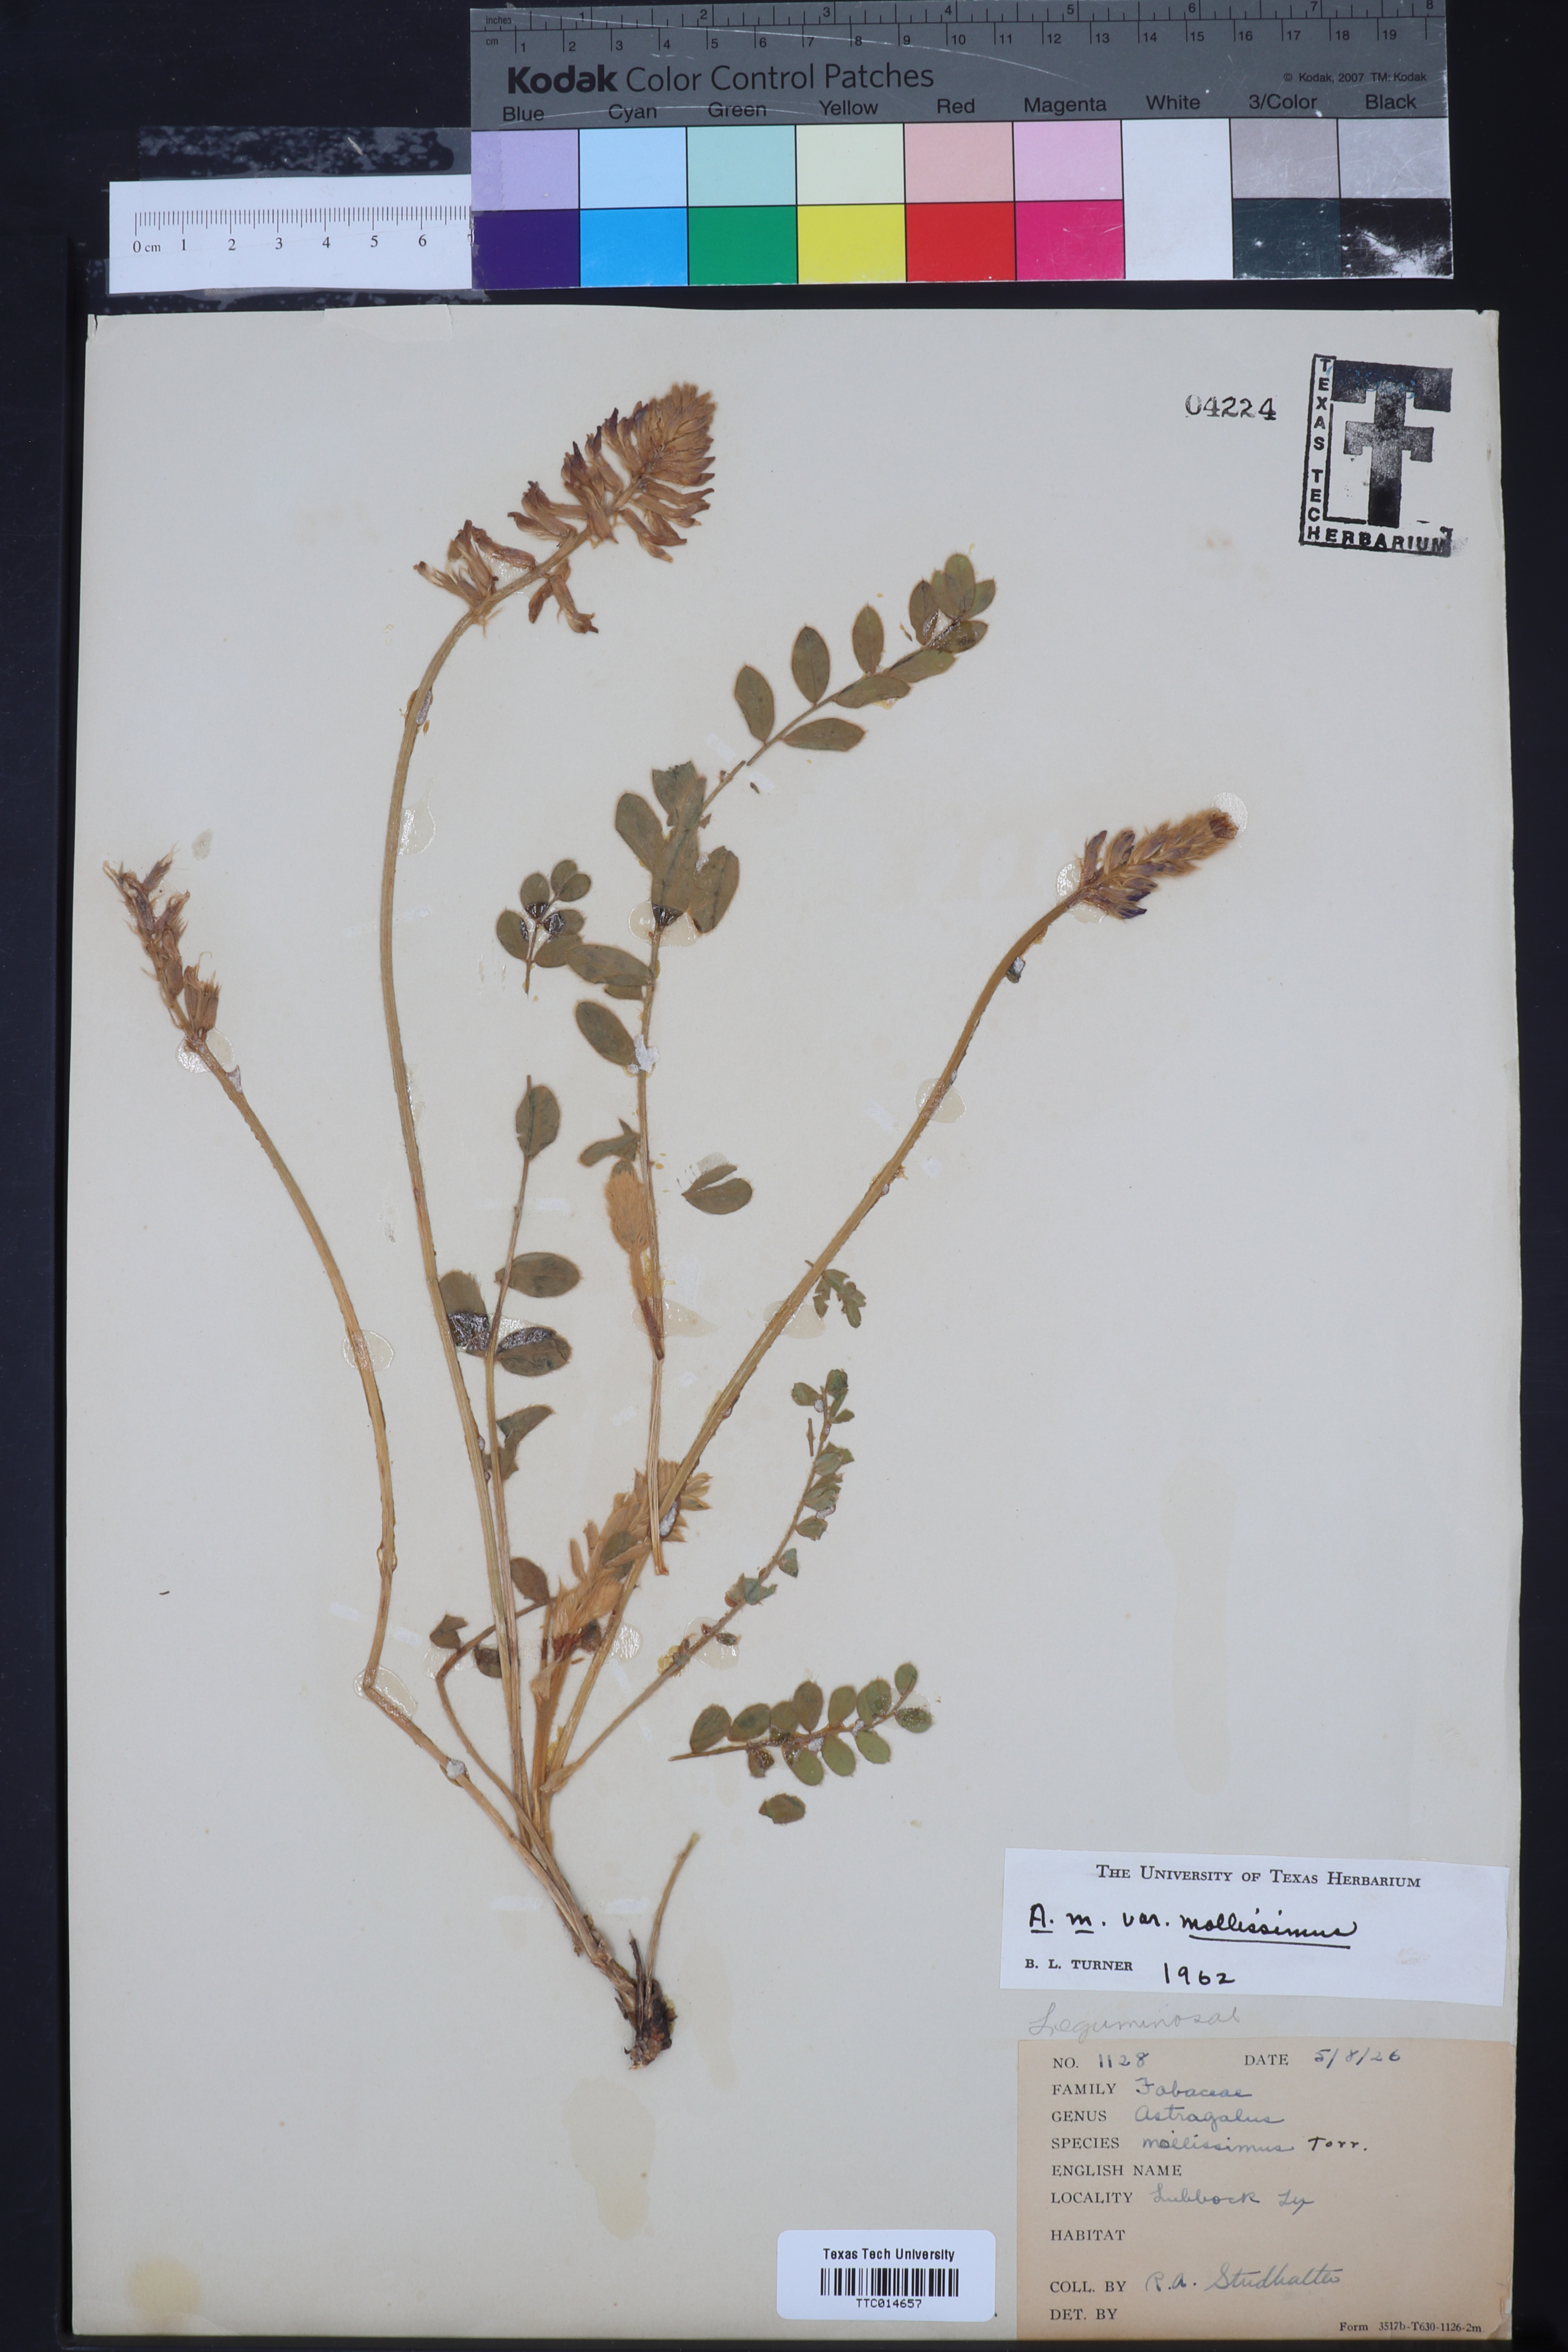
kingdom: Plantae
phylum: Tracheophyta
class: Magnoliopsida
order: Fabales
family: Fabaceae
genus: Astragalus
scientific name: Astragalus mollissimus
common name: Woolly locoweed
